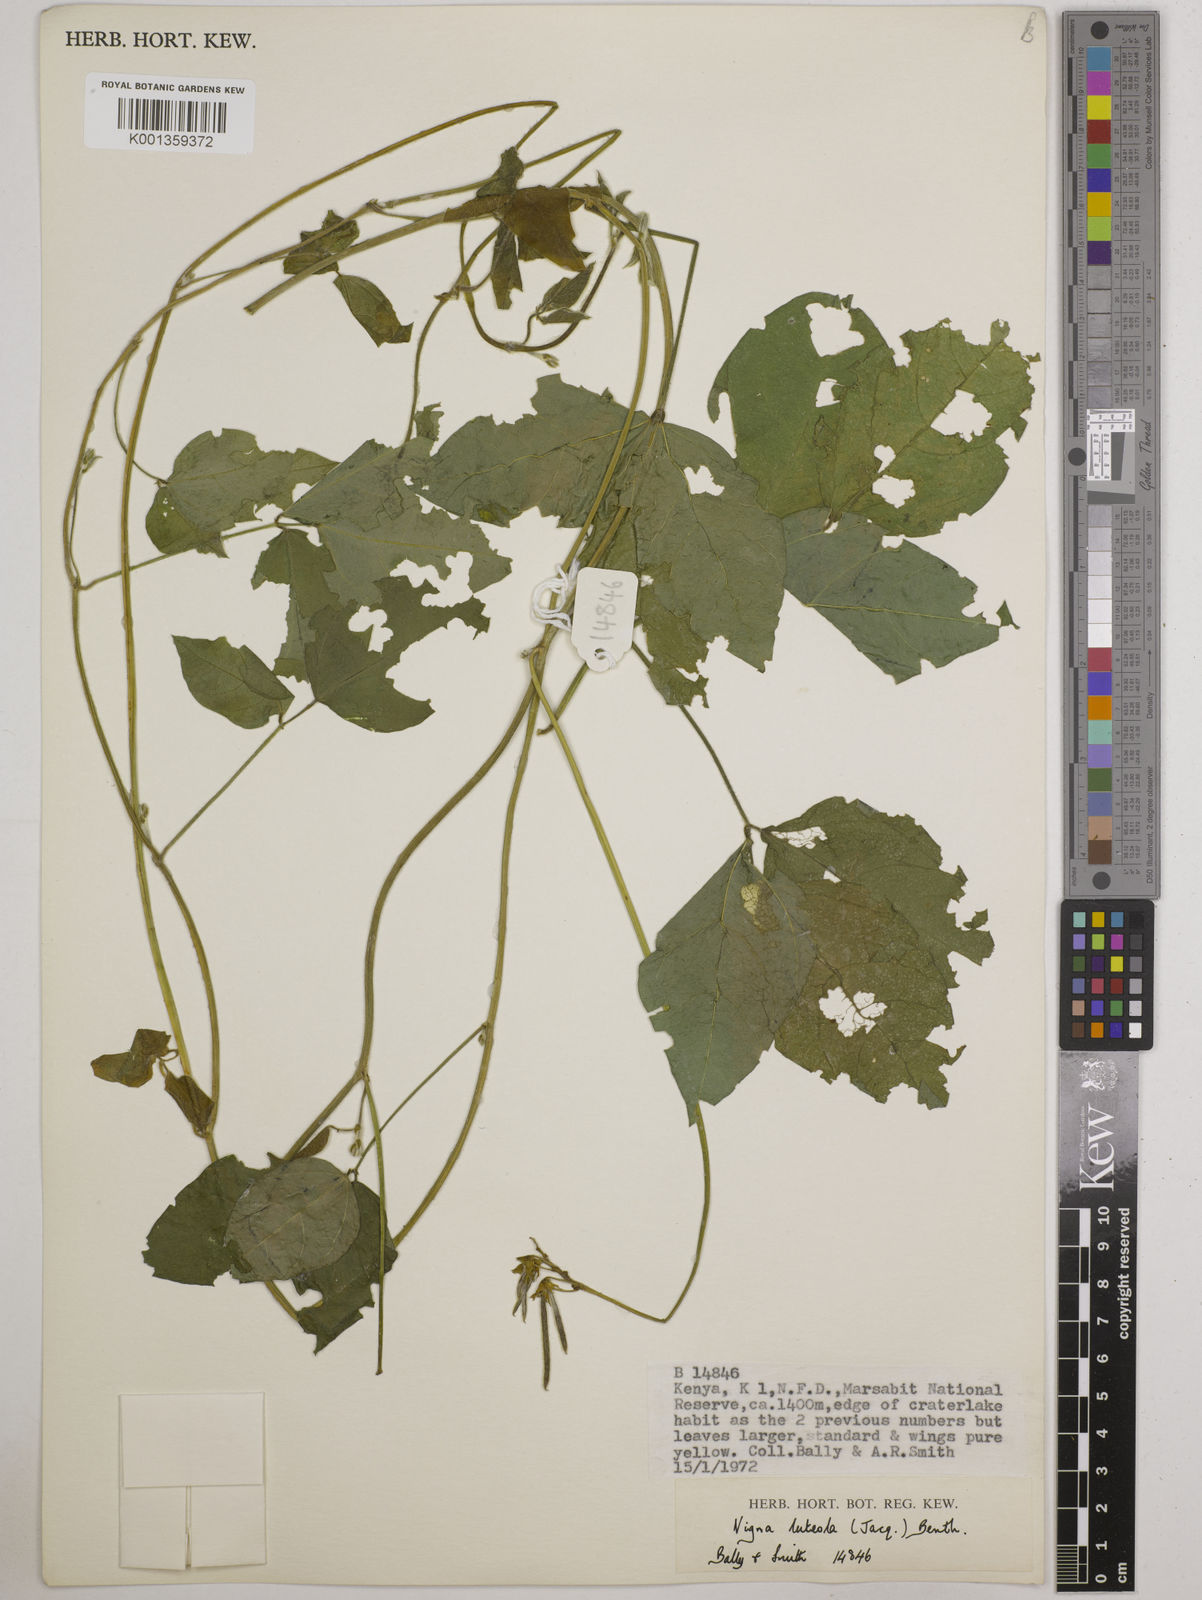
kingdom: Plantae
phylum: Tracheophyta
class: Magnoliopsida
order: Fabales
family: Fabaceae
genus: Vigna
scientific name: Vigna luteola
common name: Hairypod cowpea
